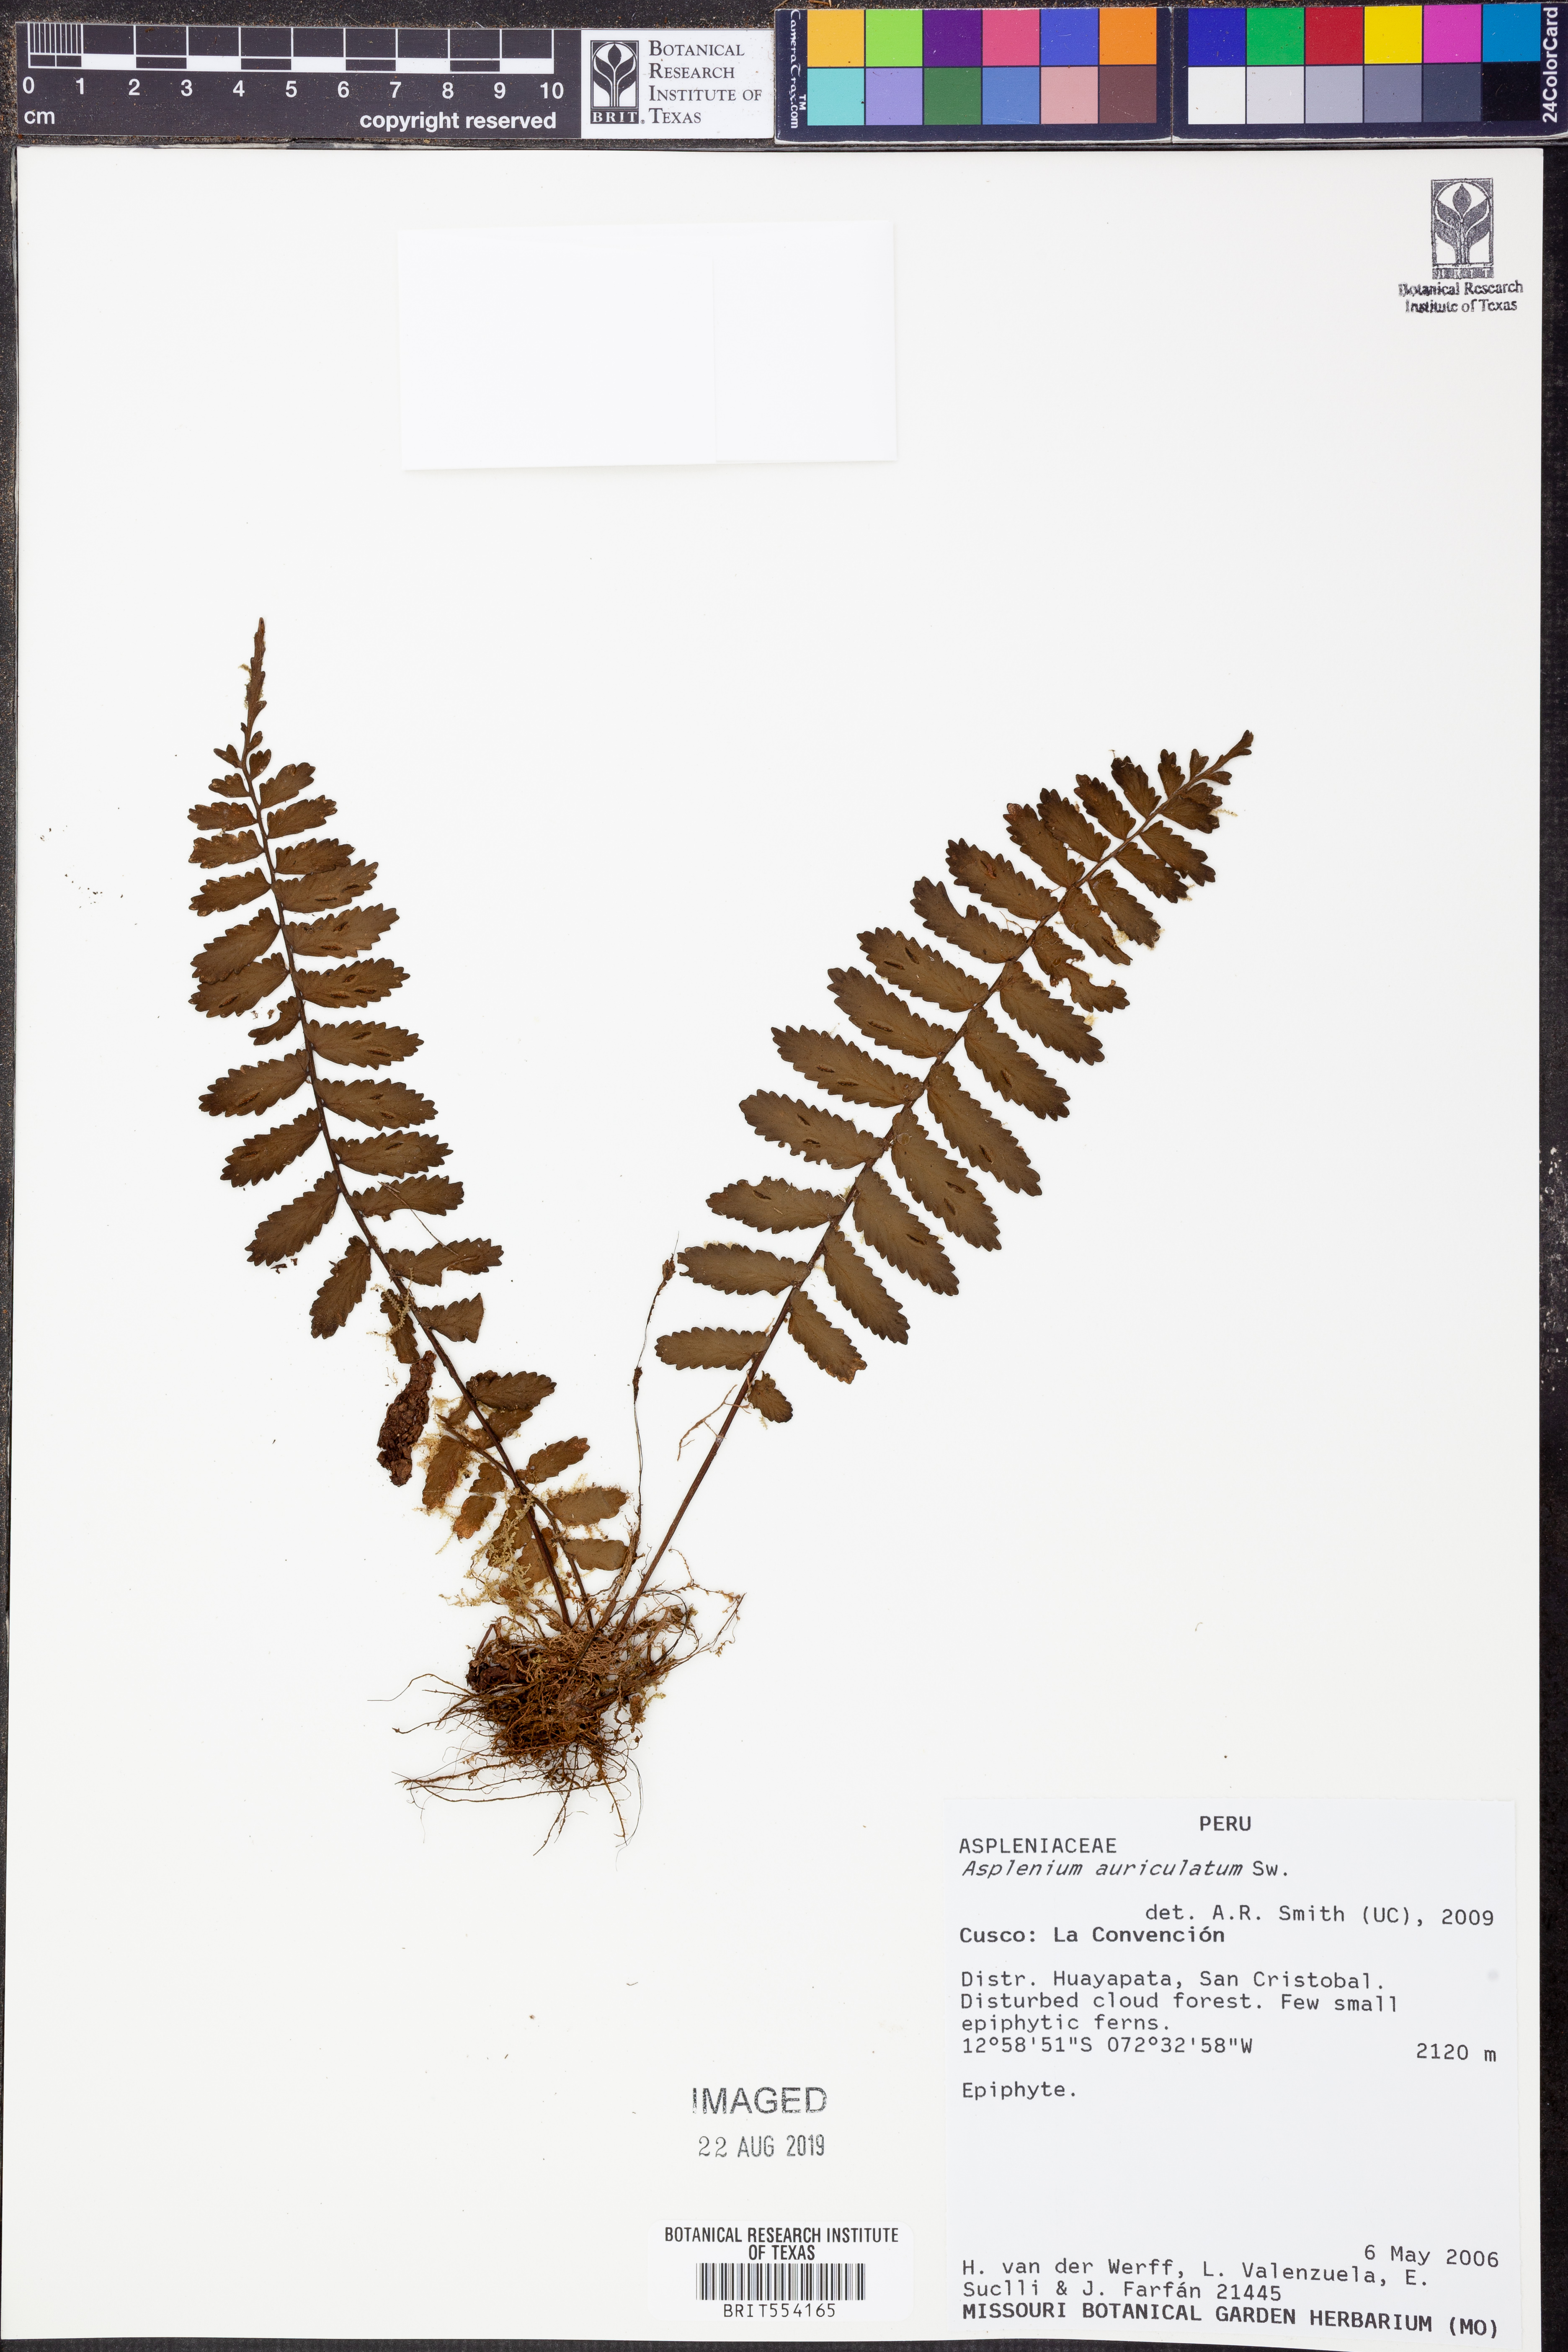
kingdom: Plantae
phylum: Tracheophyta
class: Polypodiopsida
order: Polypodiales
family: Aspleniaceae
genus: Asplenium
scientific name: Asplenium auriculatum
